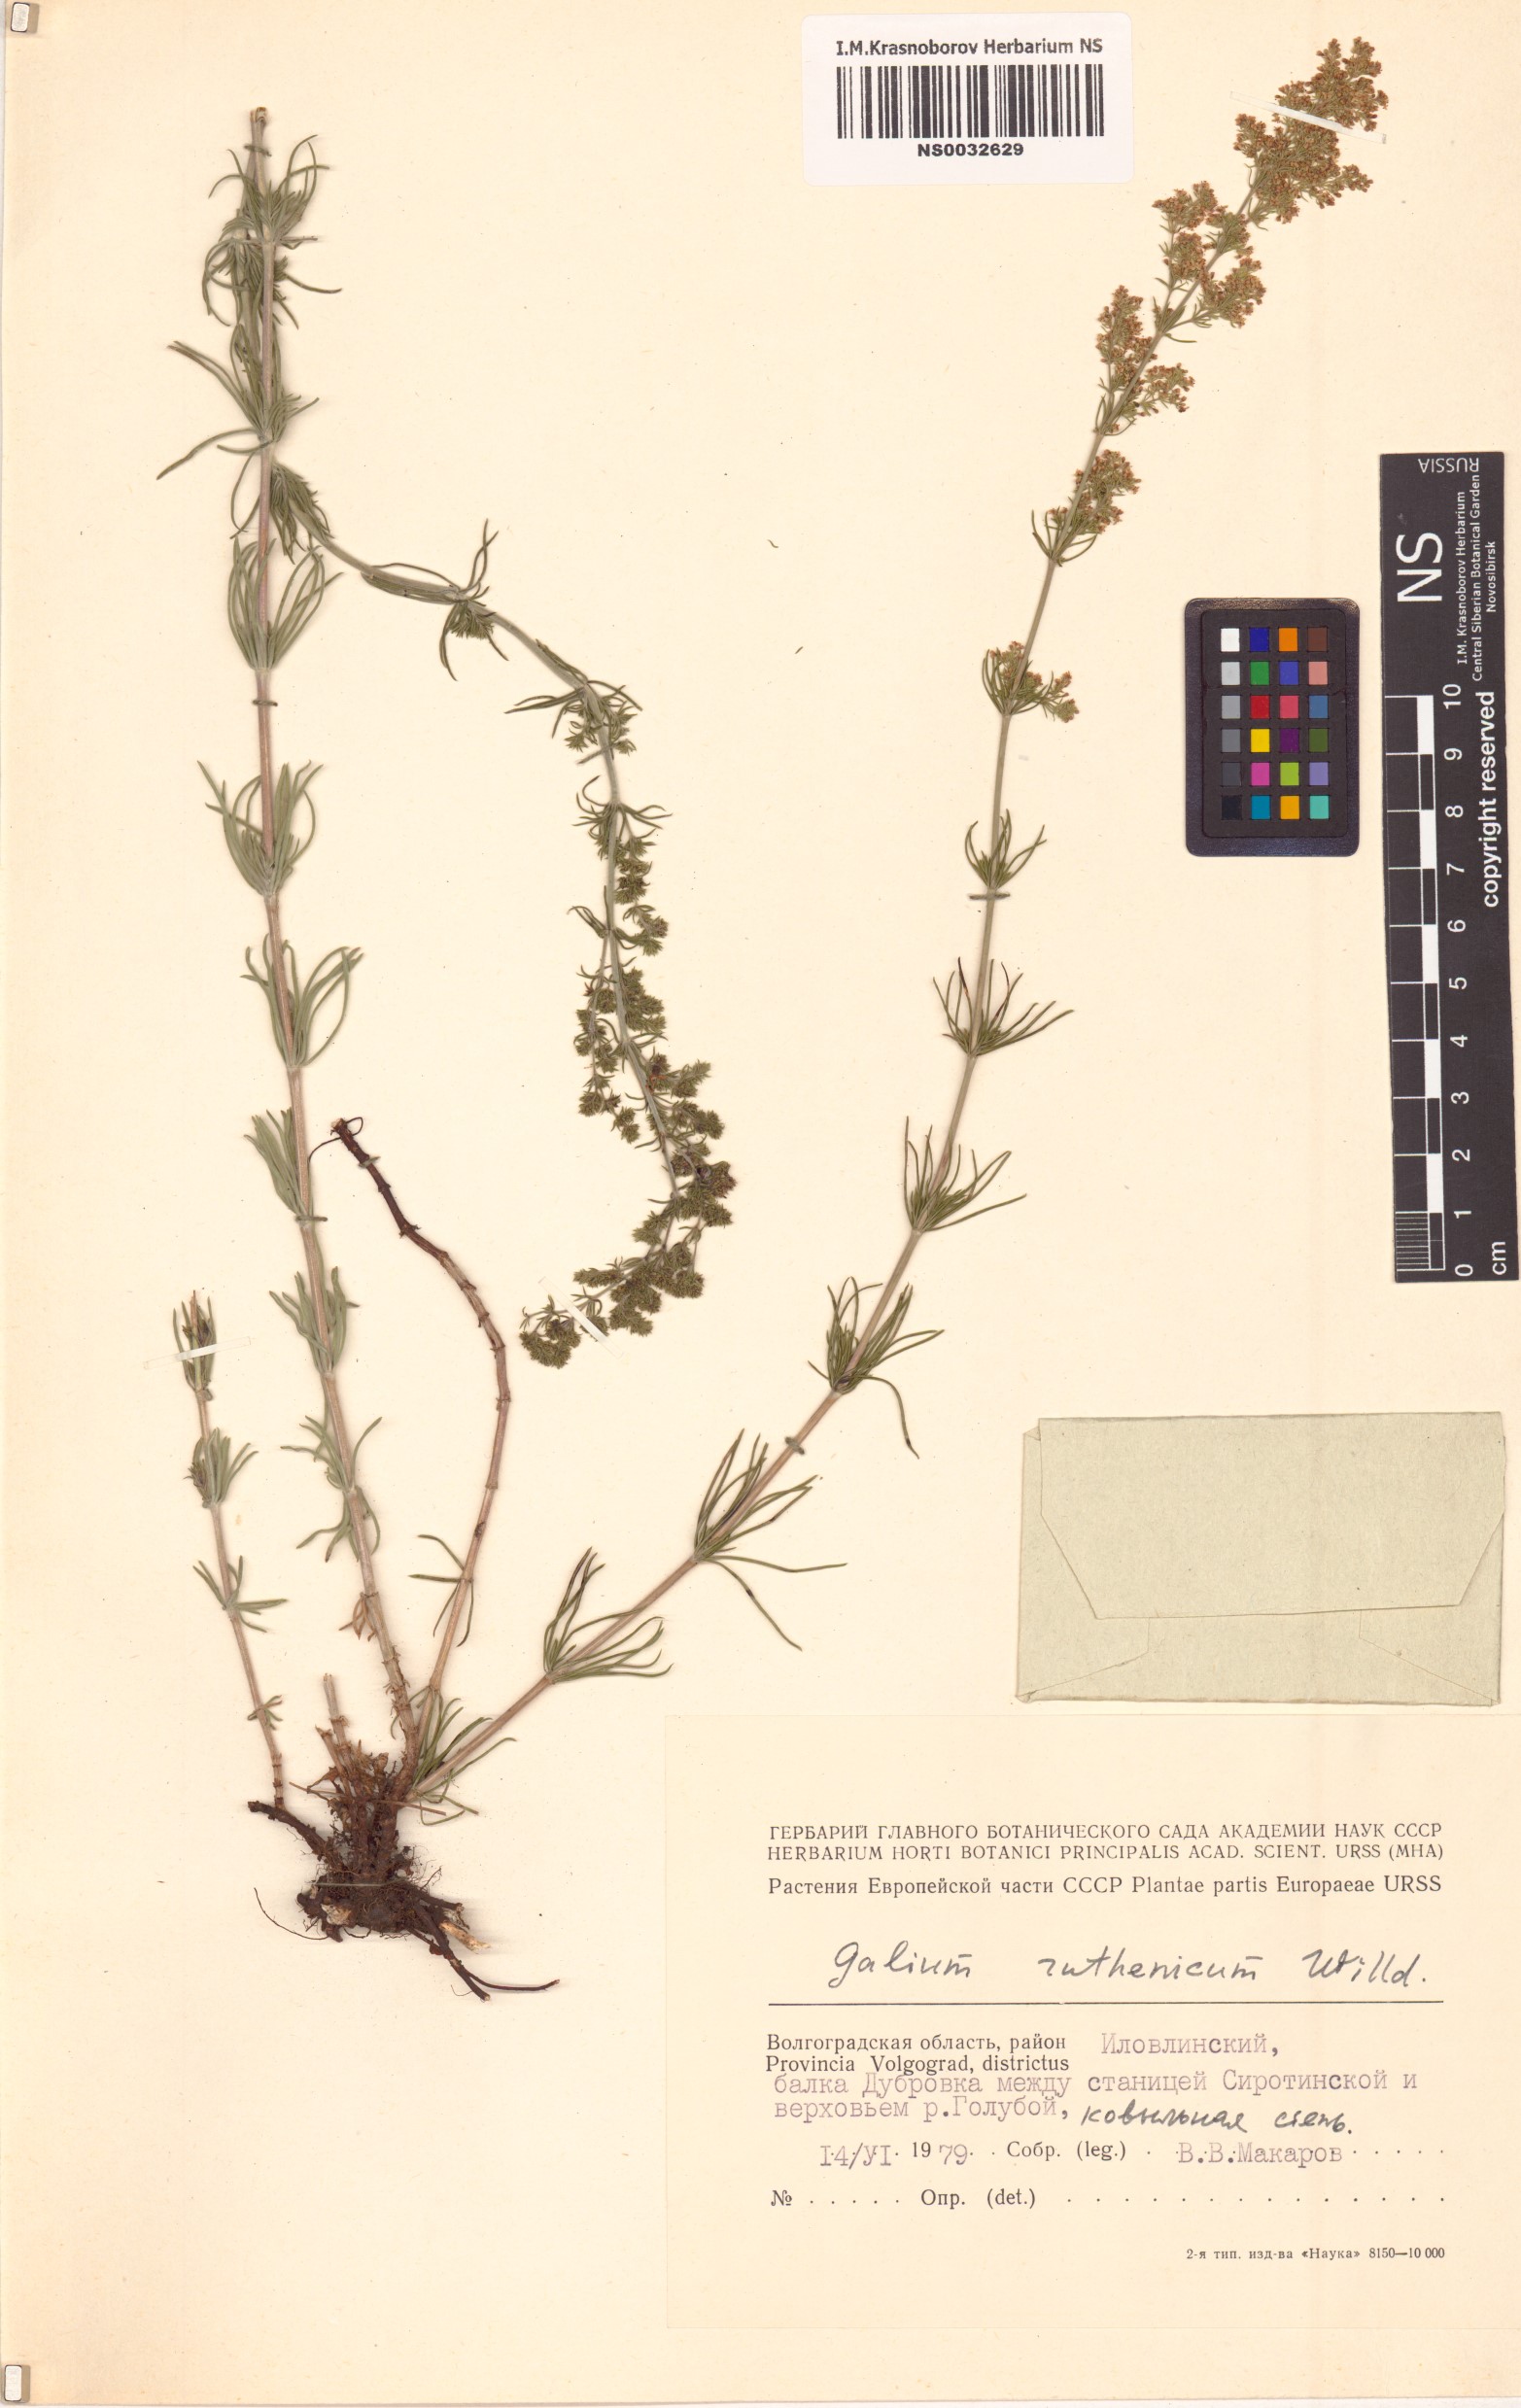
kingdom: Plantae
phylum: Tracheophyta
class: Magnoliopsida
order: Gentianales
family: Rubiaceae
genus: Galium
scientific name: Galium verum
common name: Lady's bedstraw
